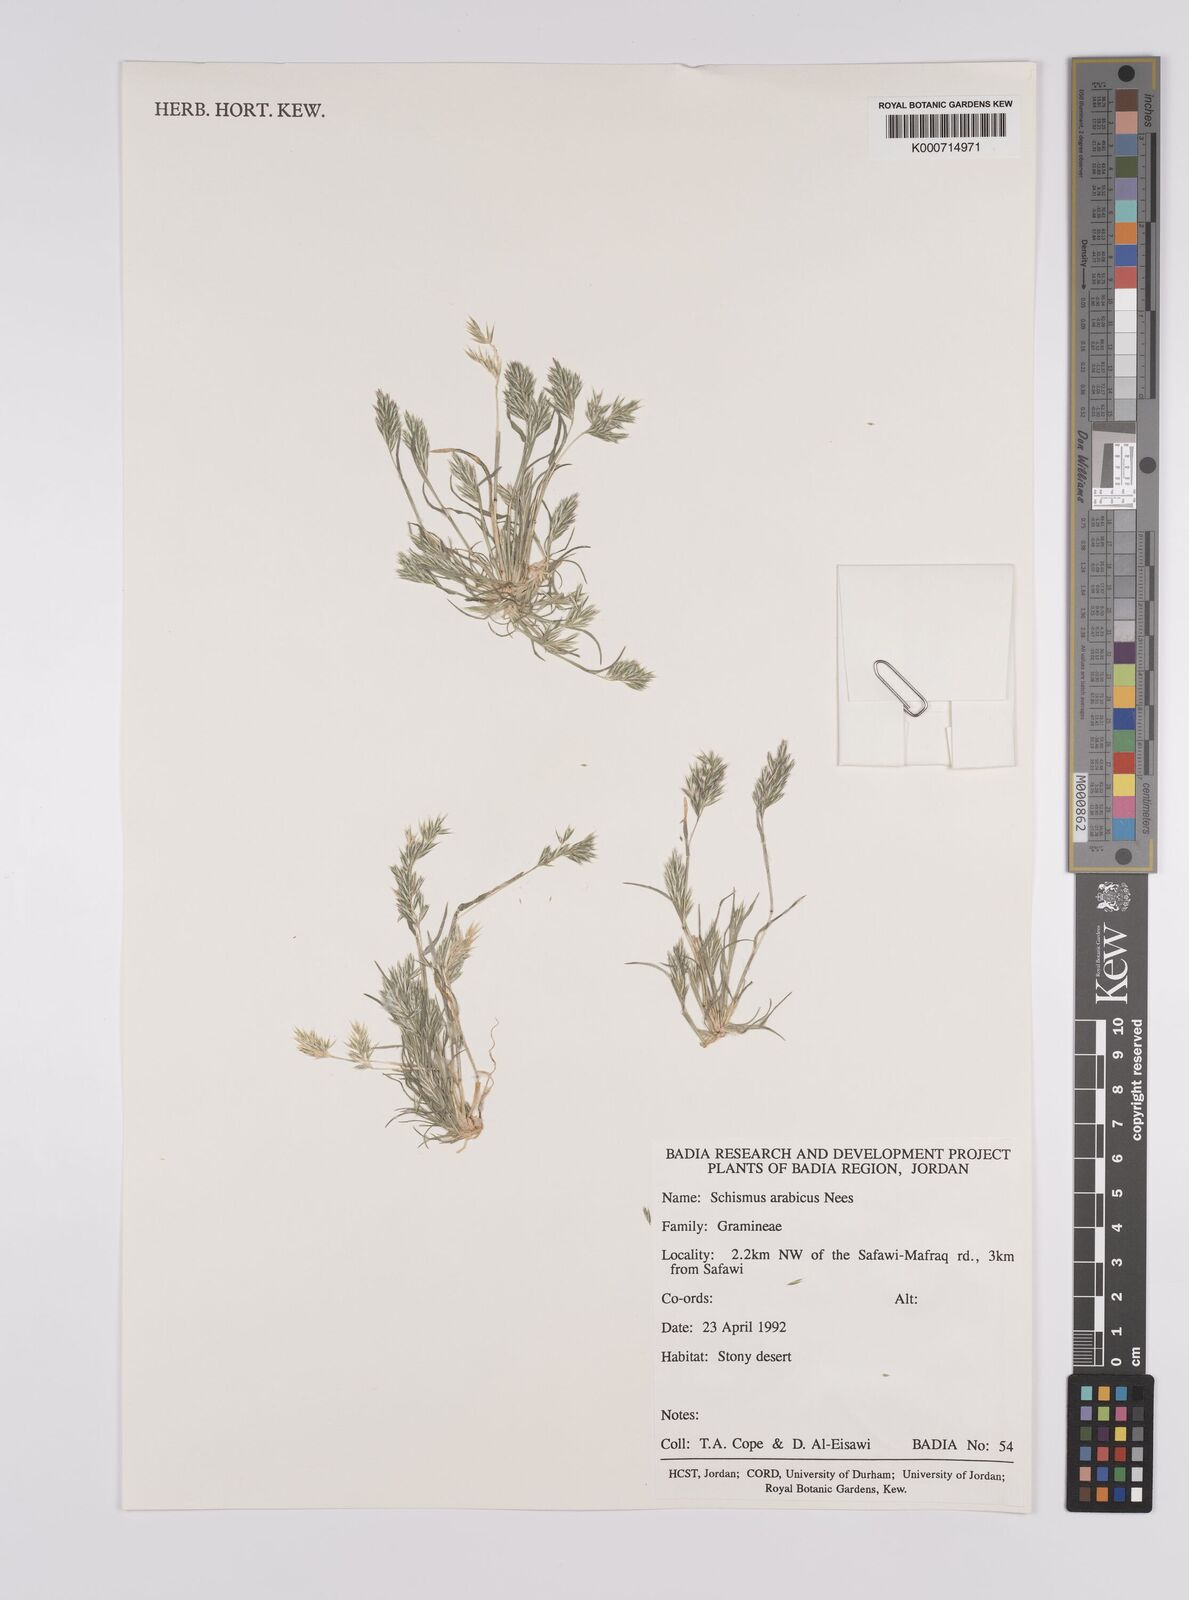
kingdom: Plantae
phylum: Tracheophyta
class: Liliopsida
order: Poales
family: Poaceae
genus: Schismus
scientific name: Schismus arabicus
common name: Arabian schismus
